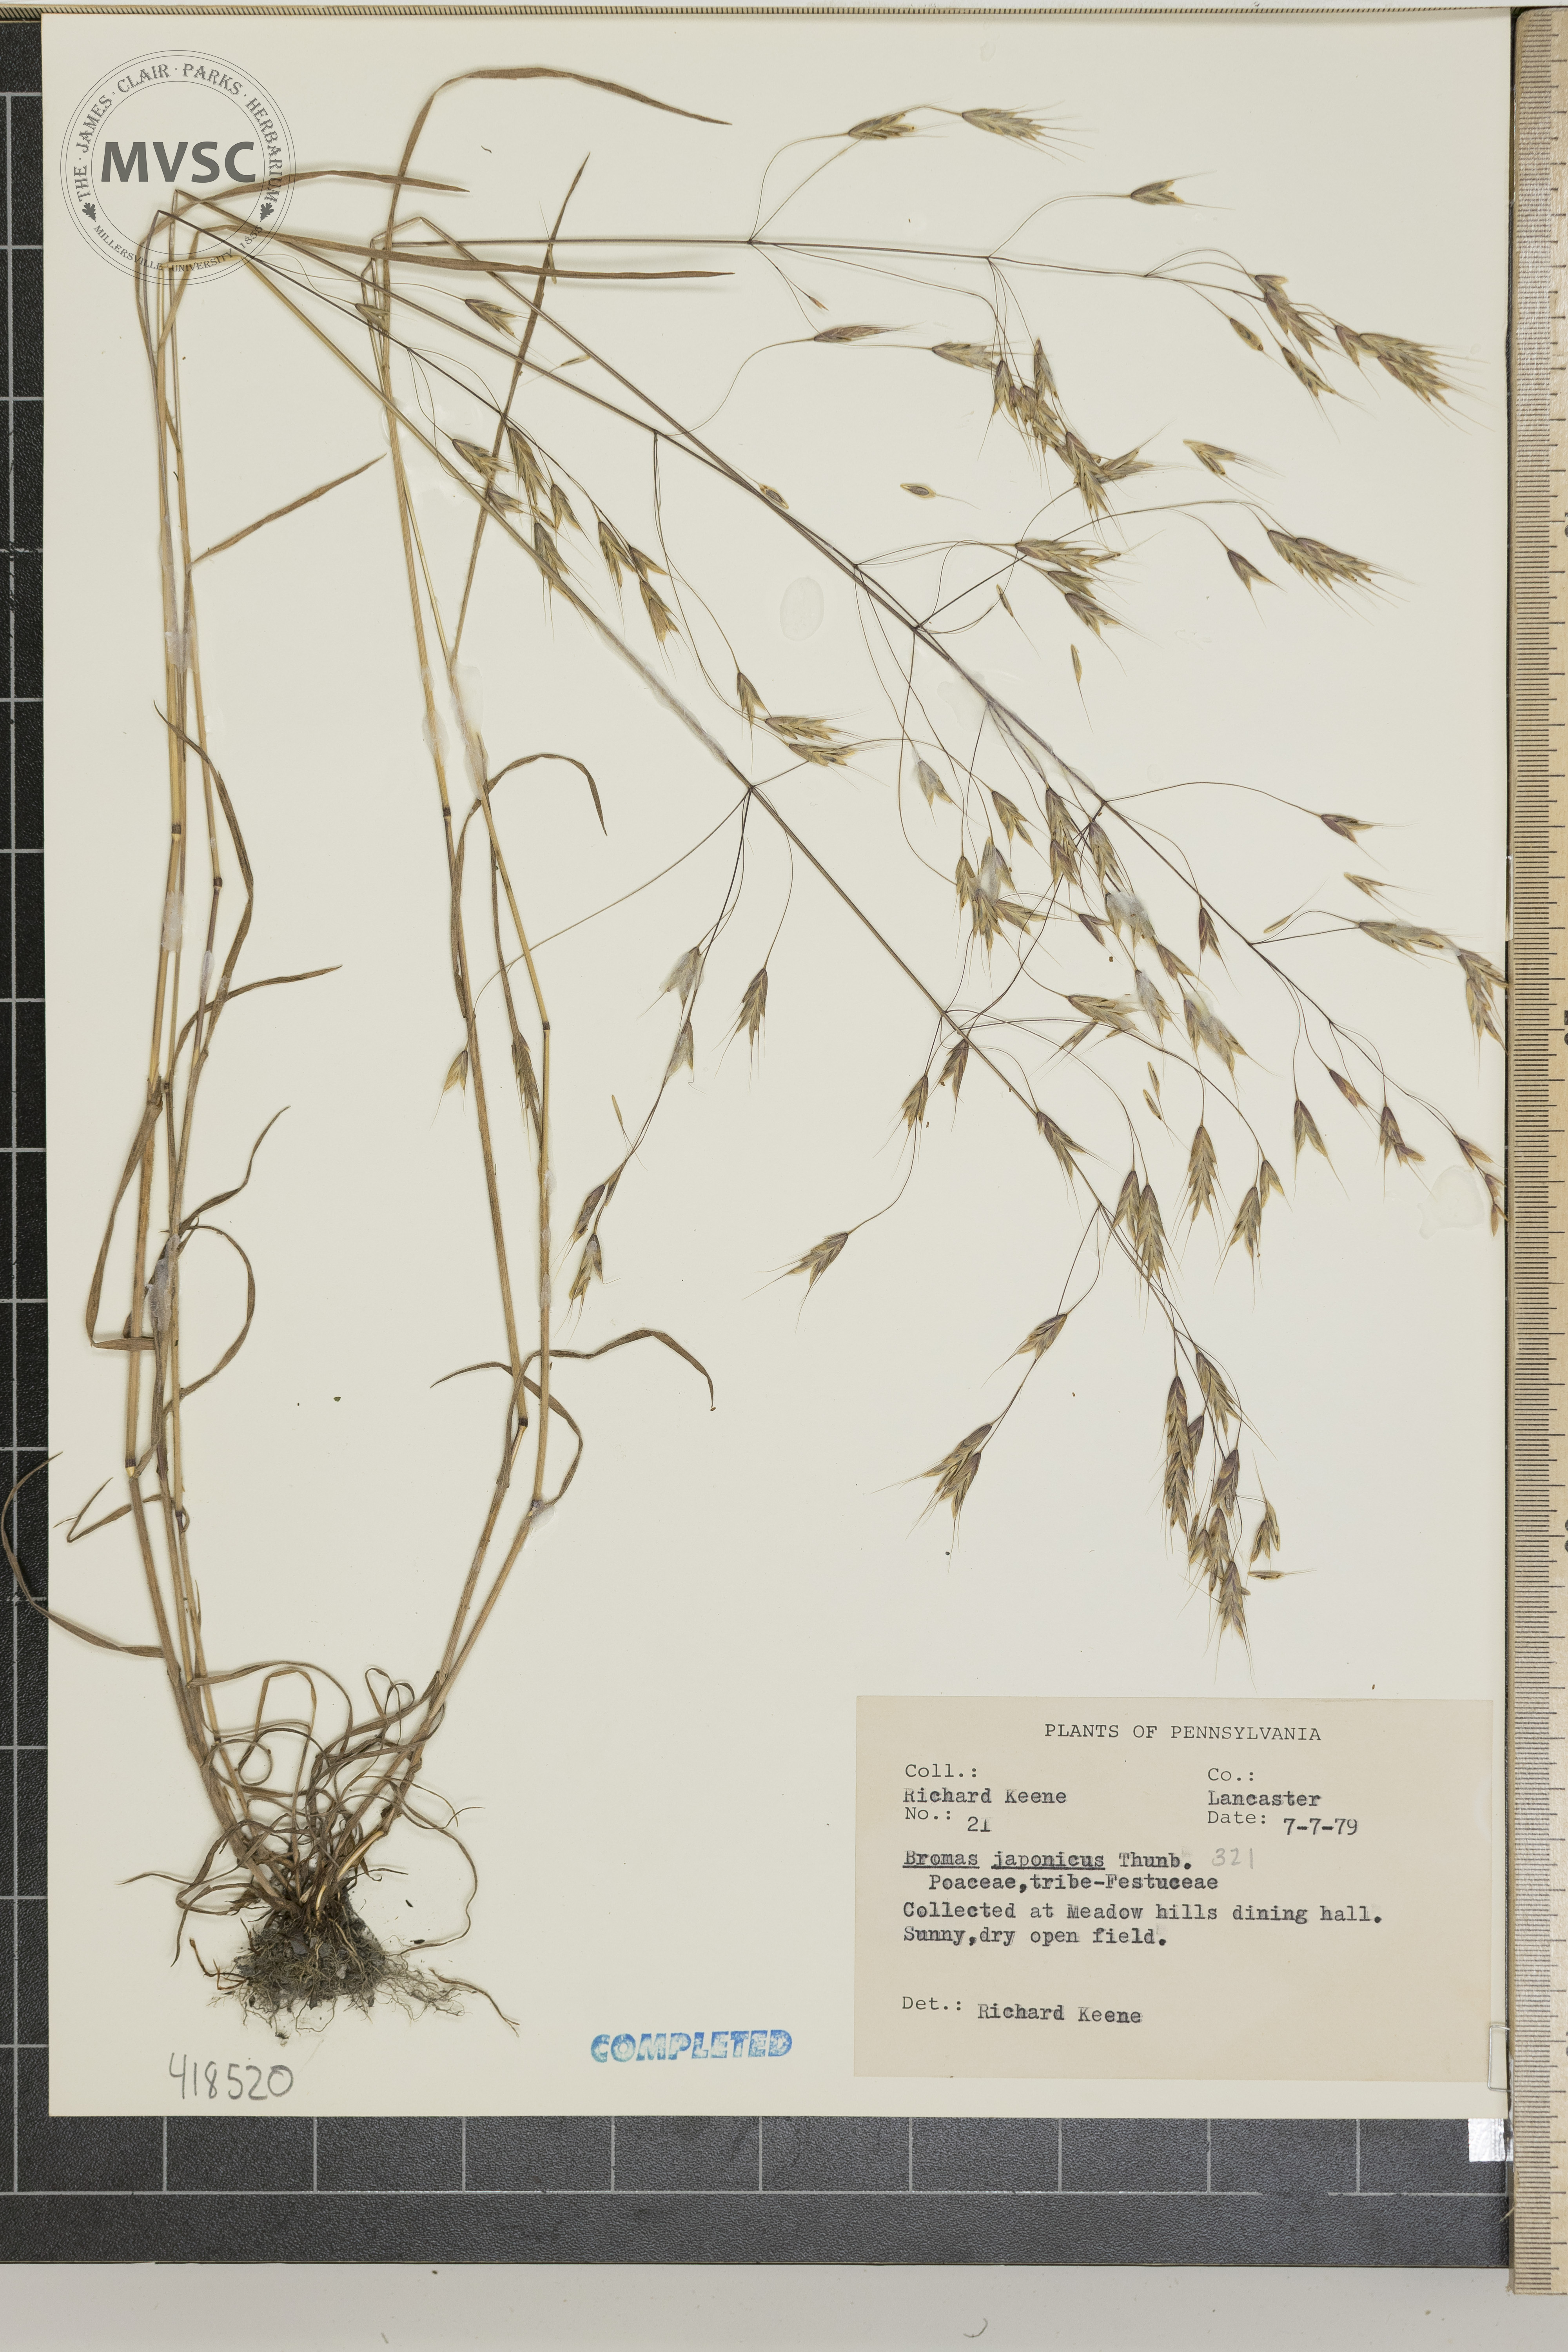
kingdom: Plantae
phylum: Tracheophyta
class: Liliopsida
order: Poales
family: Poaceae
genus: Bromus
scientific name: Bromus japonicus
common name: Field Brome
